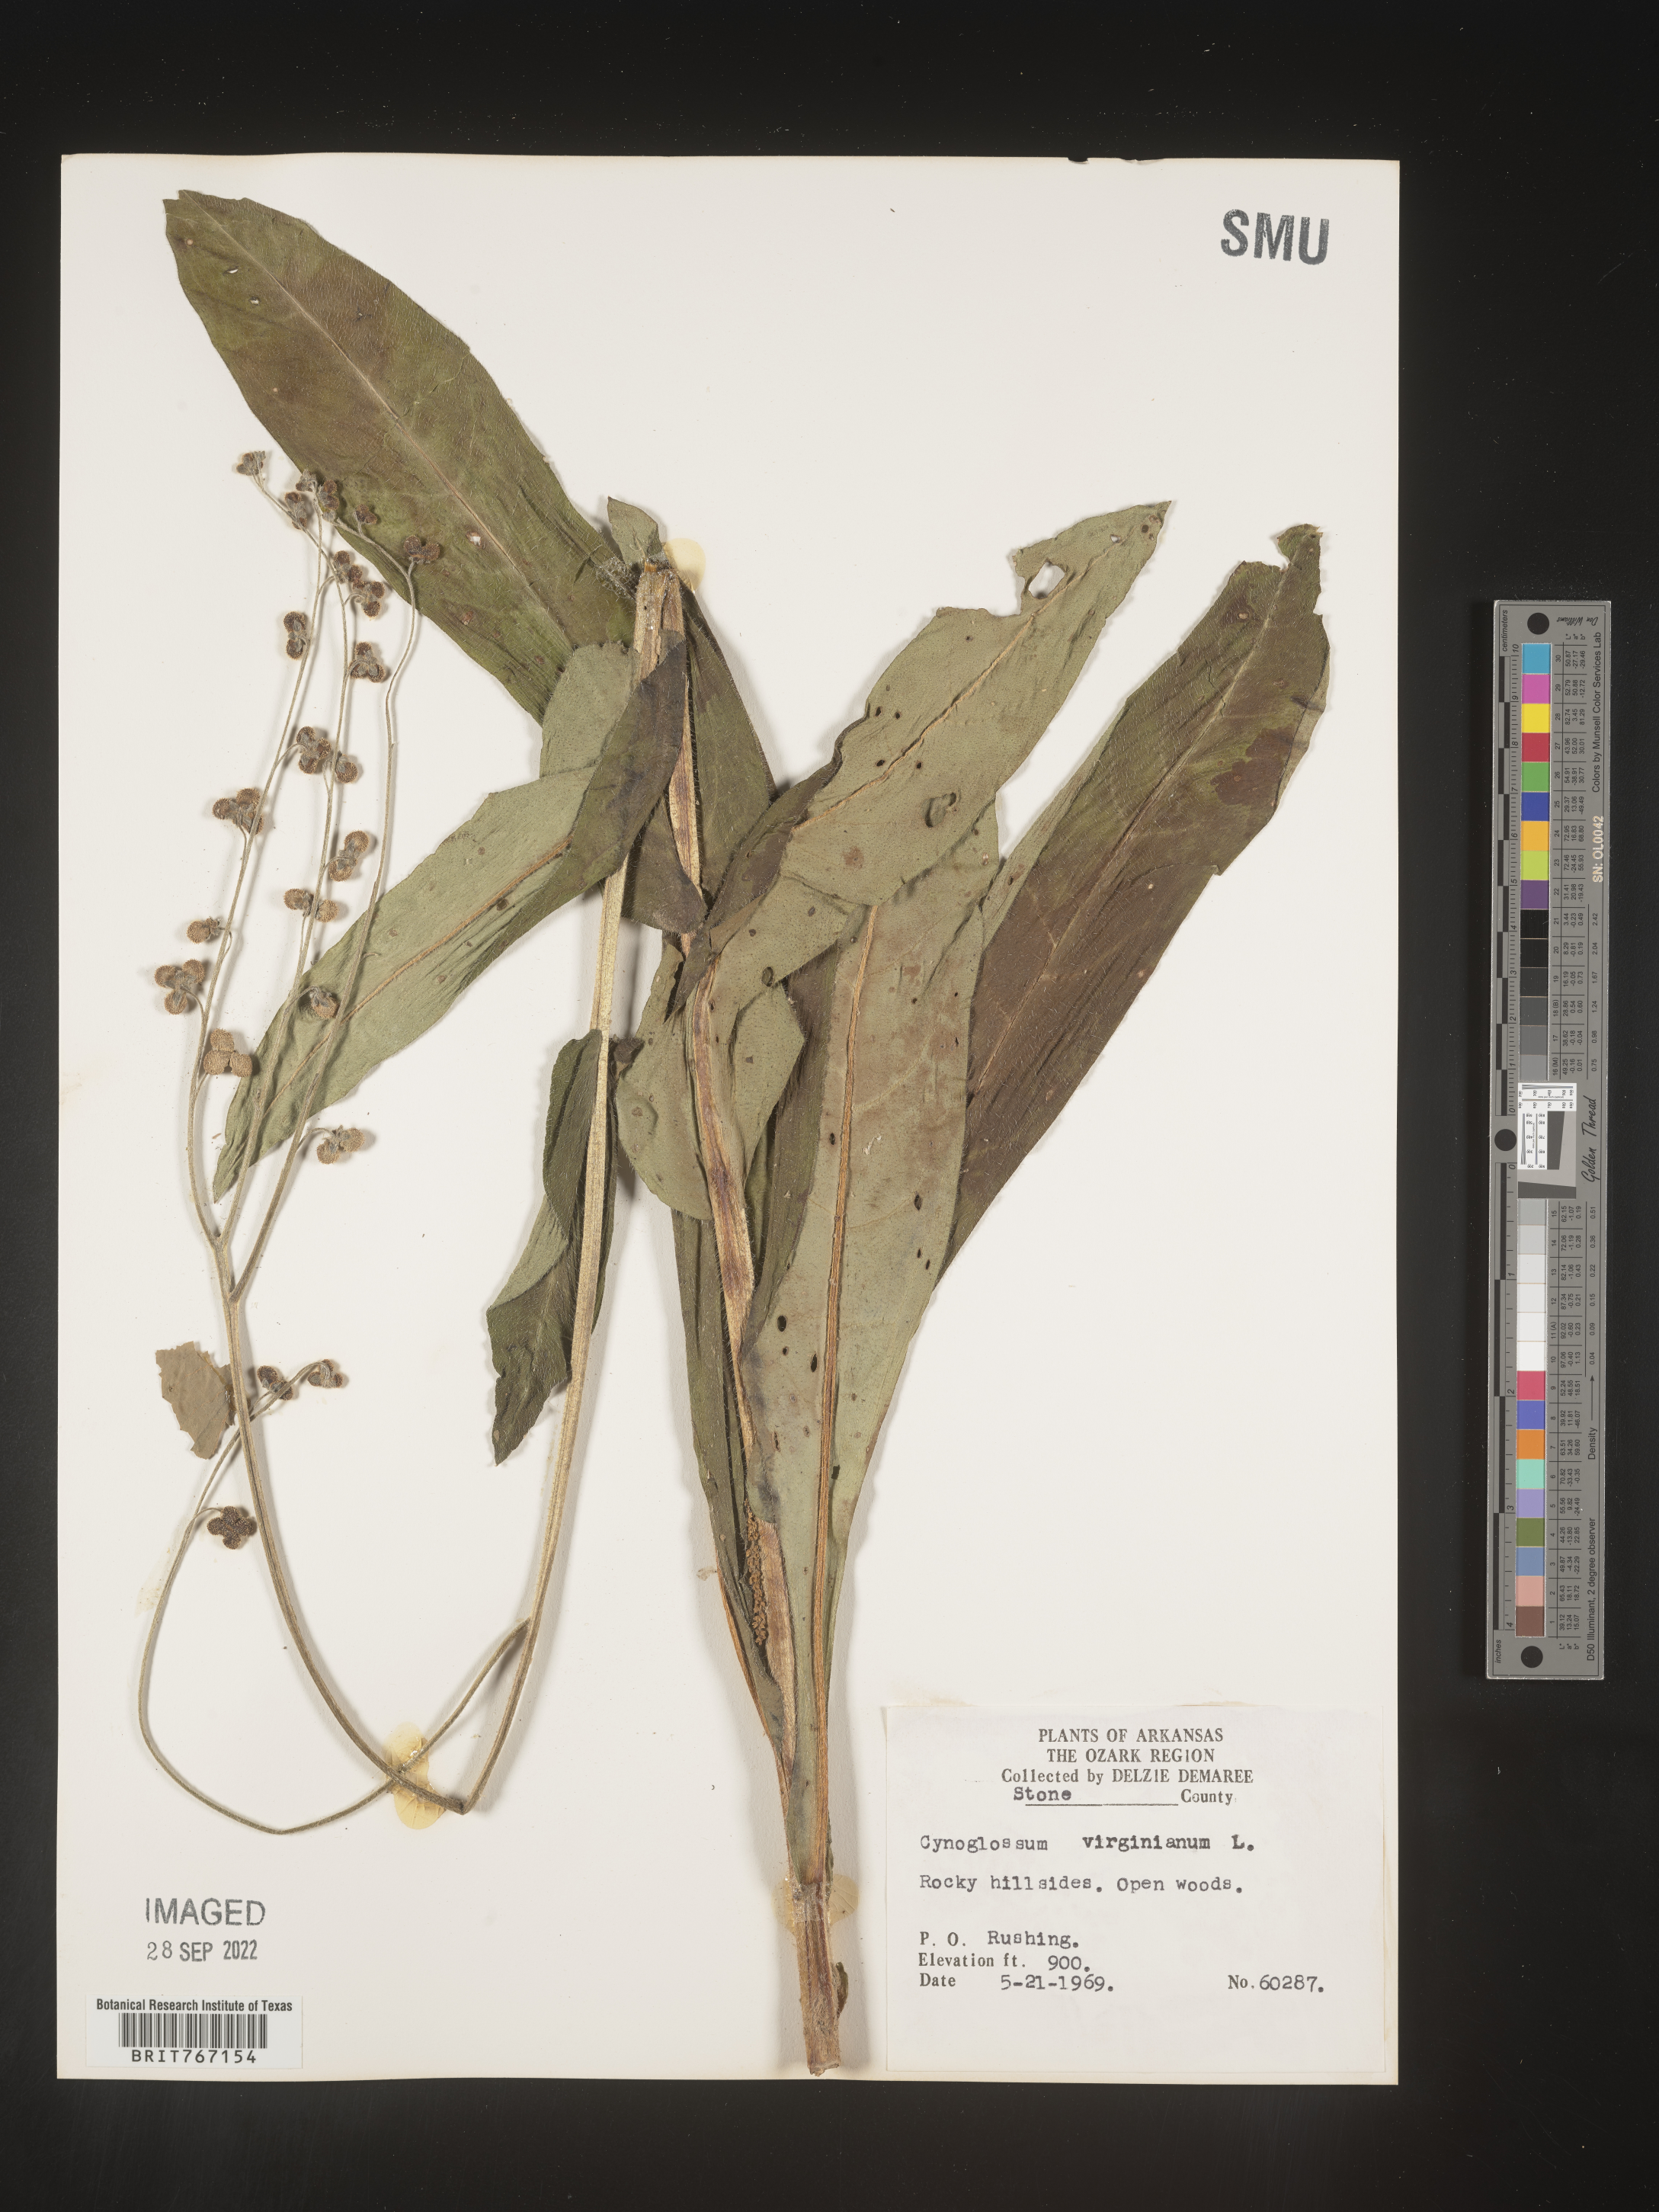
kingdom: Plantae
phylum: Tracheophyta
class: Magnoliopsida
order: Boraginales
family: Boraginaceae
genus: Andersonglossum
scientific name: Andersonglossum virginianum
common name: Wild comfrey
